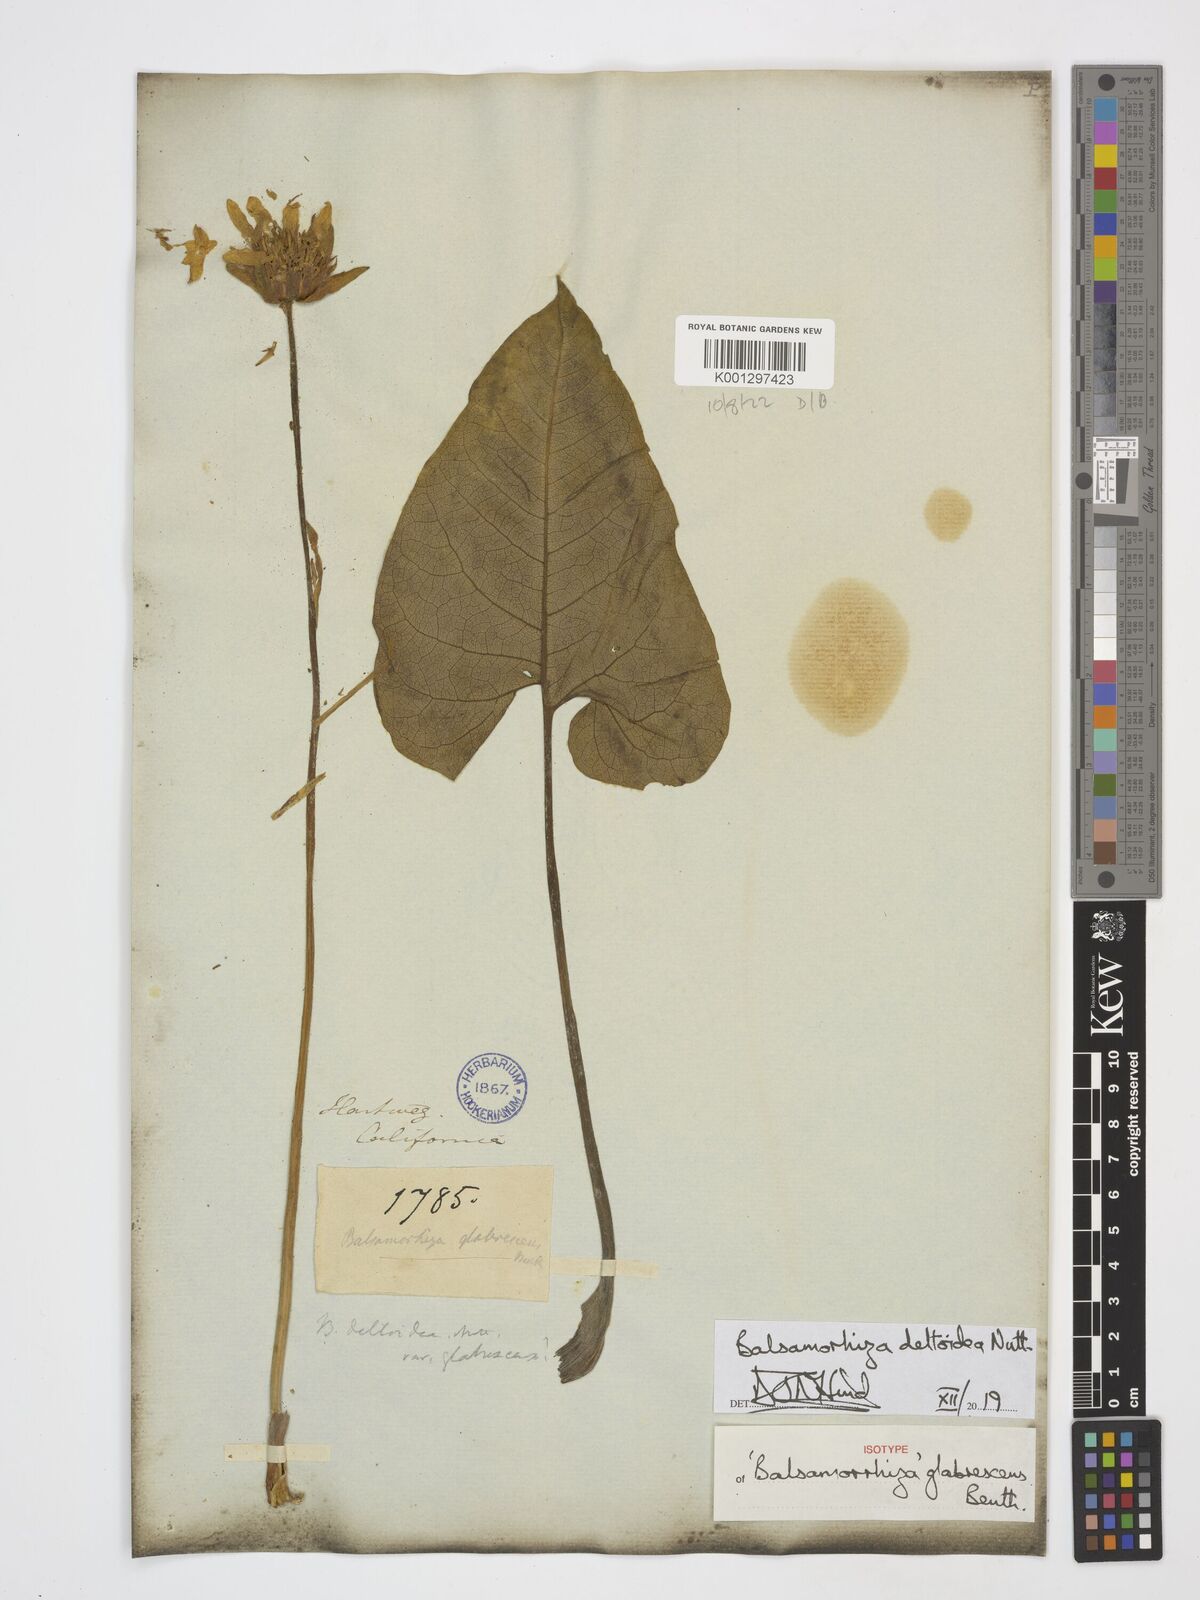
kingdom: Plantae
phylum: Tracheophyta
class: Magnoliopsida
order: Asterales
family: Asteraceae
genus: Balsamorhiza
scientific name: Balsamorhiza deltoidea
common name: Deltoid balsamroot
